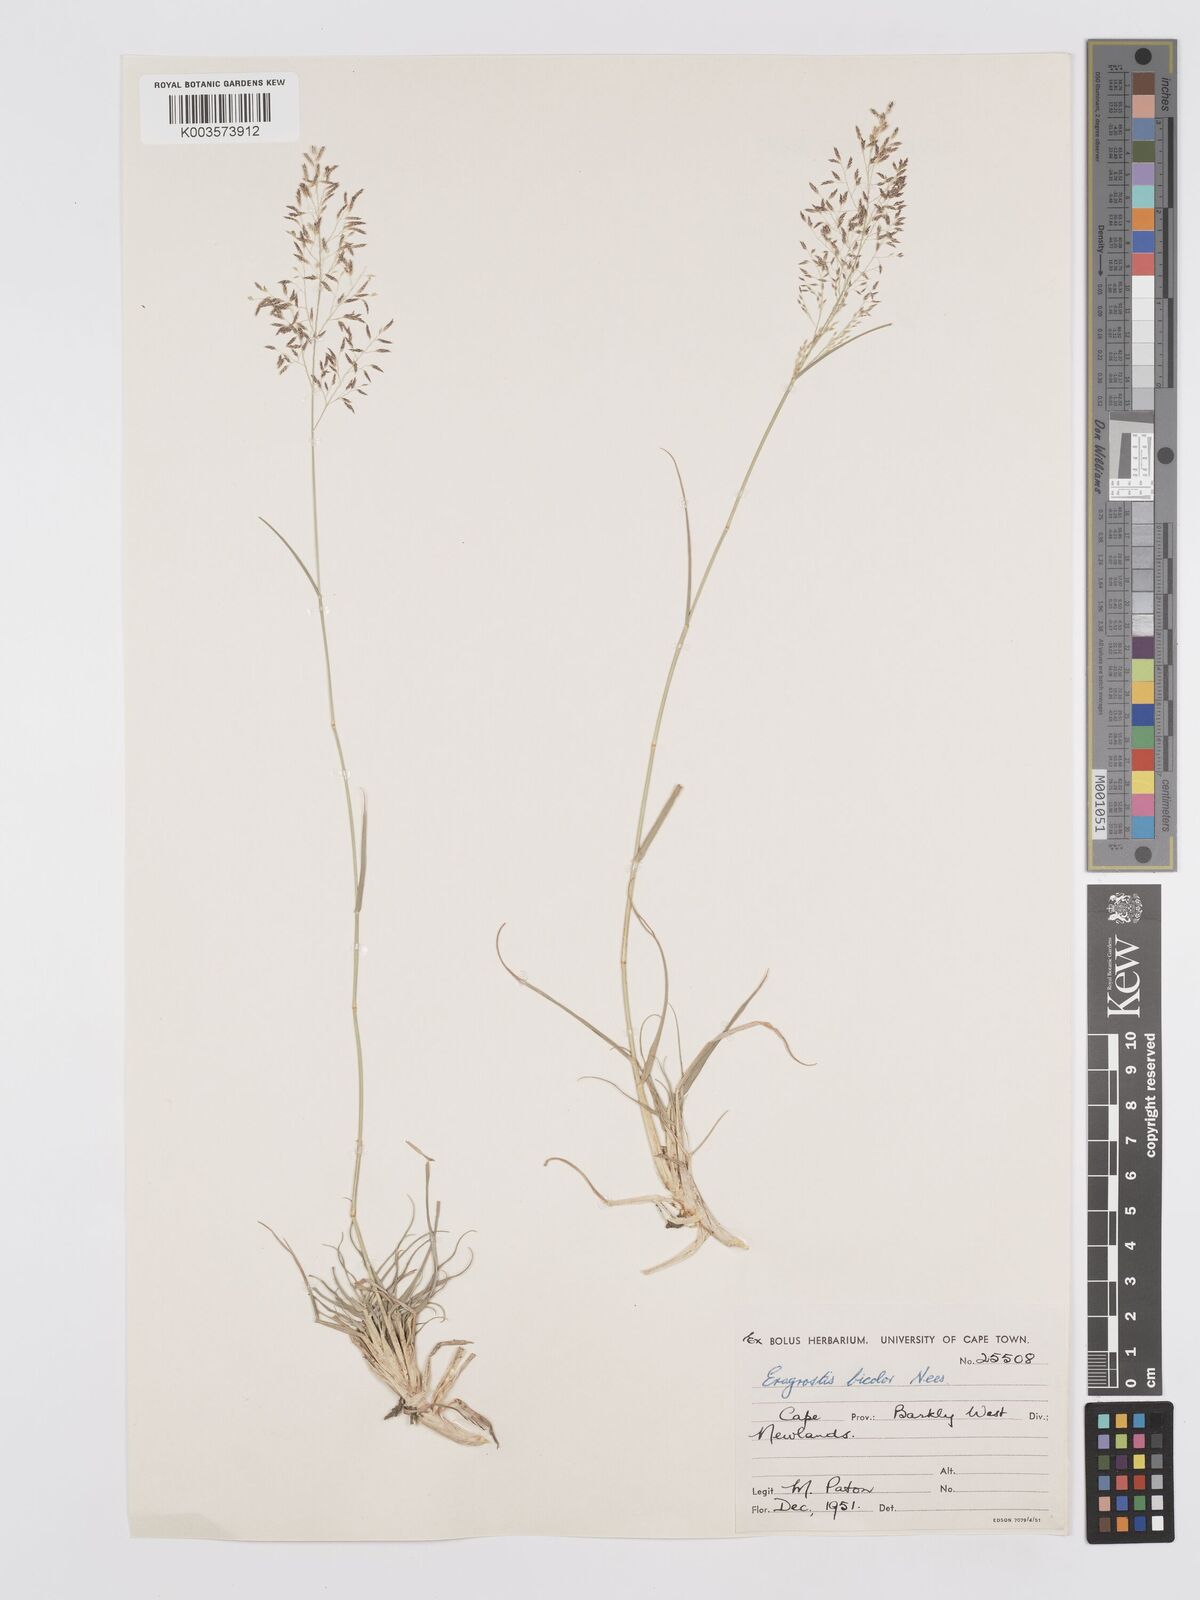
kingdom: Plantae
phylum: Tracheophyta
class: Liliopsida
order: Poales
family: Poaceae
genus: Eragrostis
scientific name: Eragrostis
